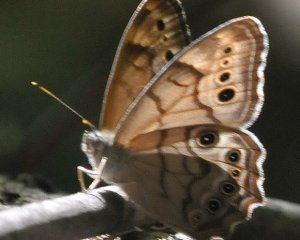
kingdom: Animalia
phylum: Arthropoda
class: Insecta
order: Lepidoptera
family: Nymphalidae
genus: Lethe
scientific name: Lethe anthedon
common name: Northern Pearly-Eye
